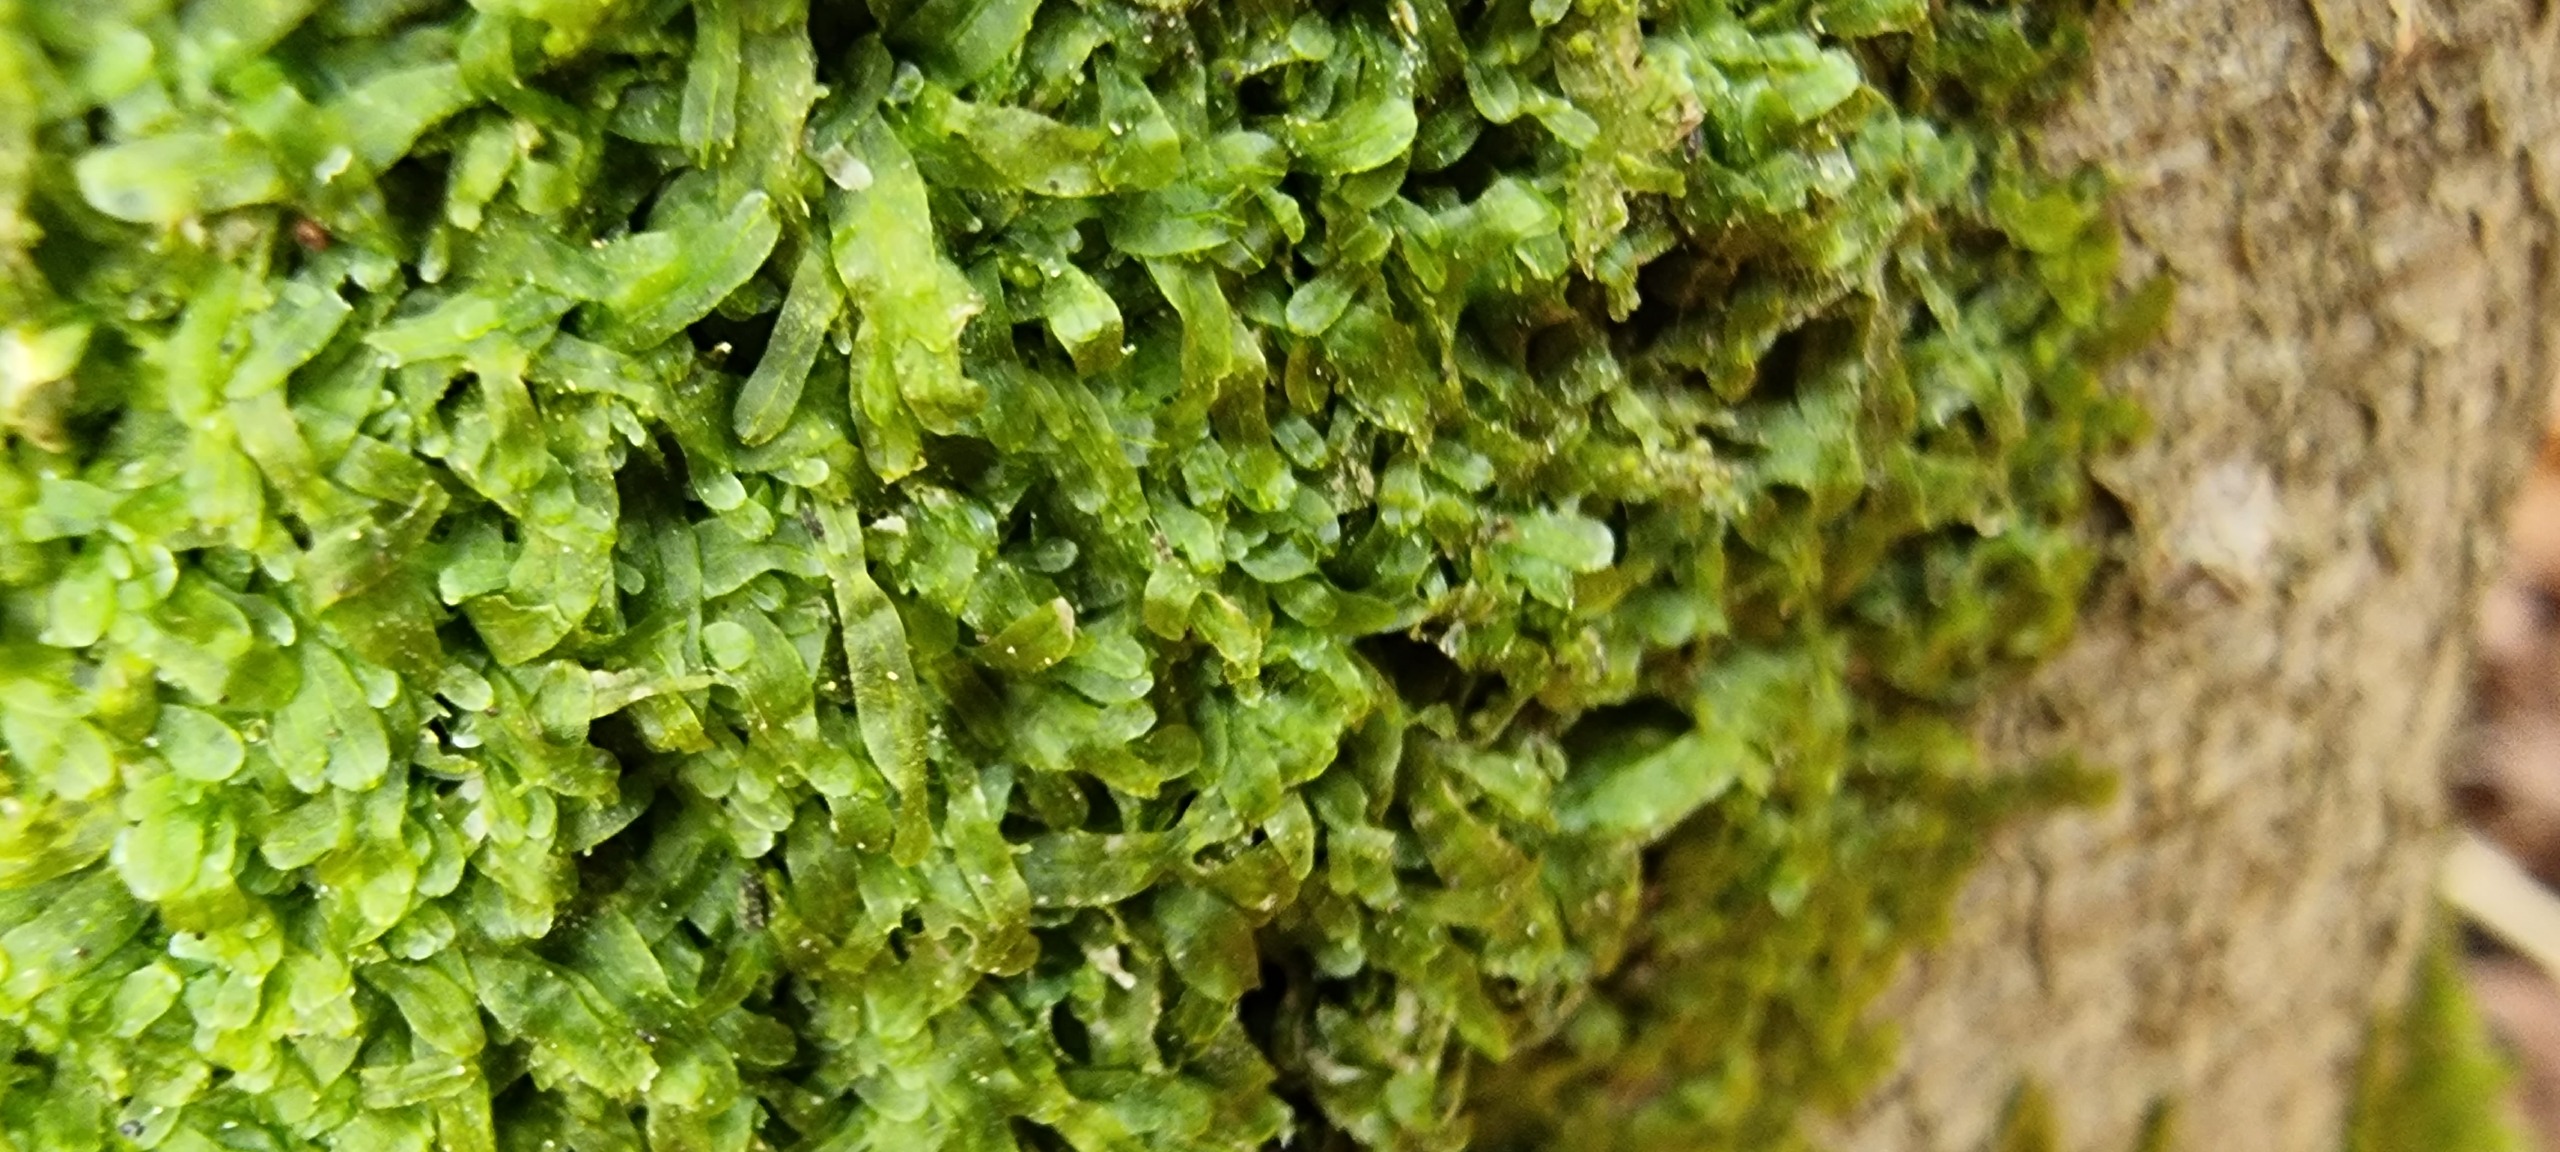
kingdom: Plantae
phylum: Marchantiophyta
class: Jungermanniopsida
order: Metzgeriales
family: Metzgeriaceae
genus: Metzgeria
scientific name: Metzgeria furcata
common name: Almindelig gaffelløv
